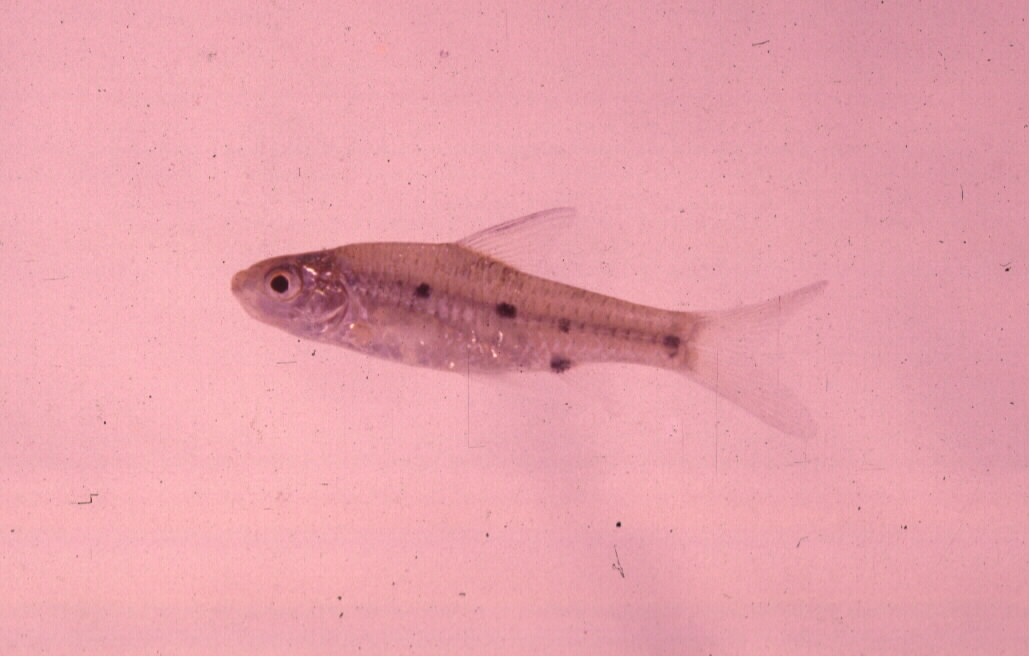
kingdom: Animalia
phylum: Chordata
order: Cypriniformes
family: Cyprinidae
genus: Enteromius
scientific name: Enteromius barotseensis
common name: Barotse barb
